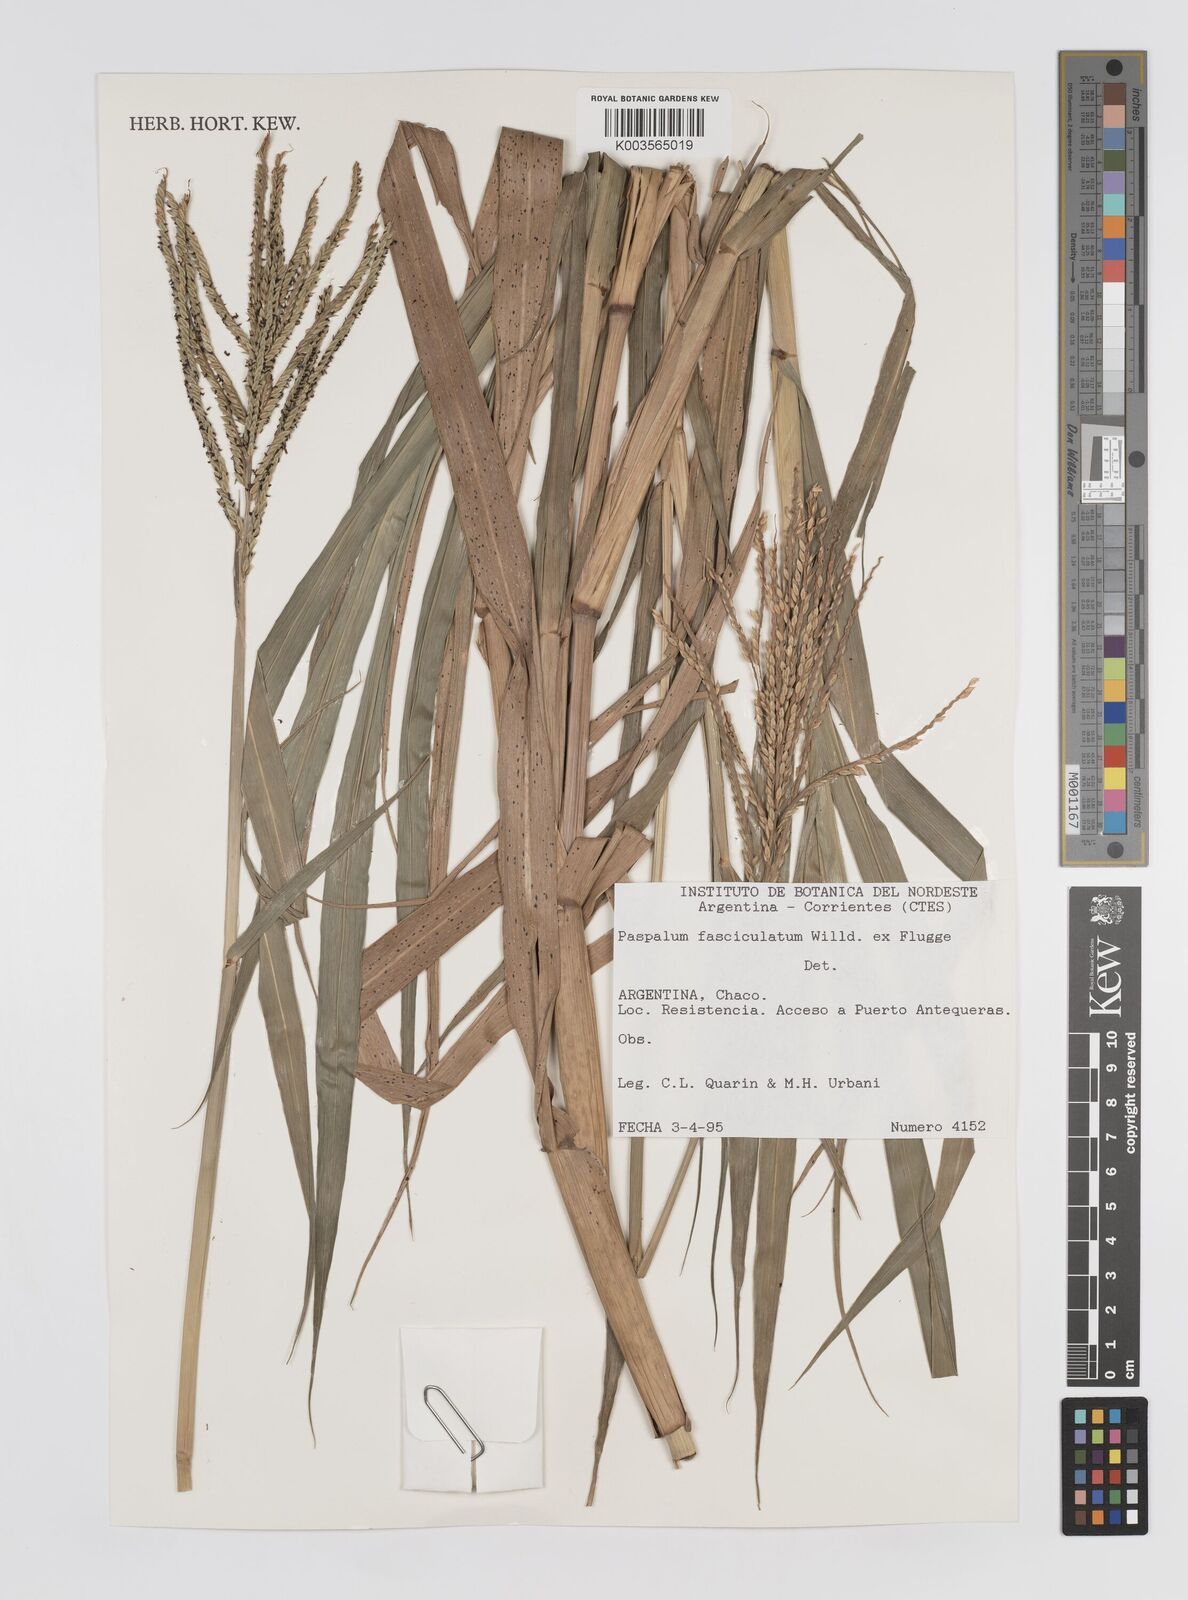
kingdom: Plantae
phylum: Tracheophyta
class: Liliopsida
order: Poales
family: Poaceae
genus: Paspalum
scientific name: Paspalum fasciculatum
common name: Bamboo grass
